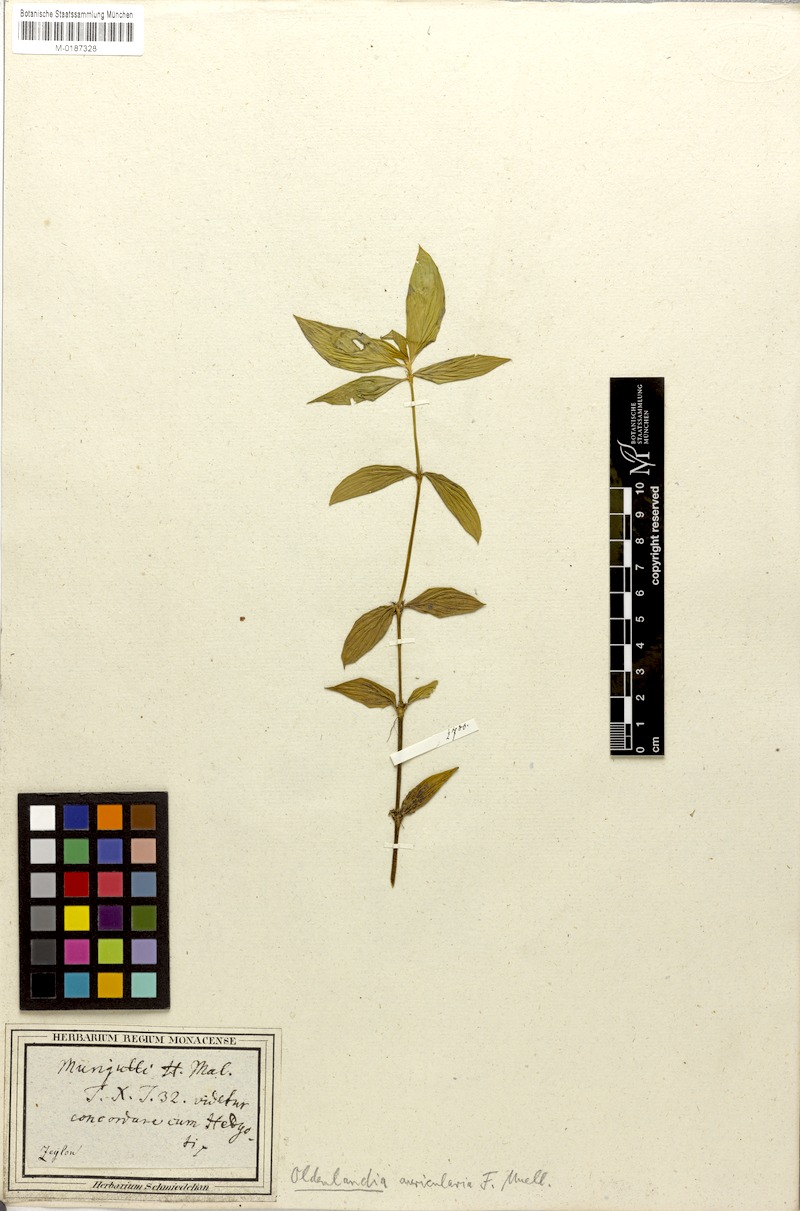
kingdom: Plantae
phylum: Tracheophyta
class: Magnoliopsida
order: Gentianales
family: Rubiaceae
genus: Exallage
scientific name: Exallage auricularia
